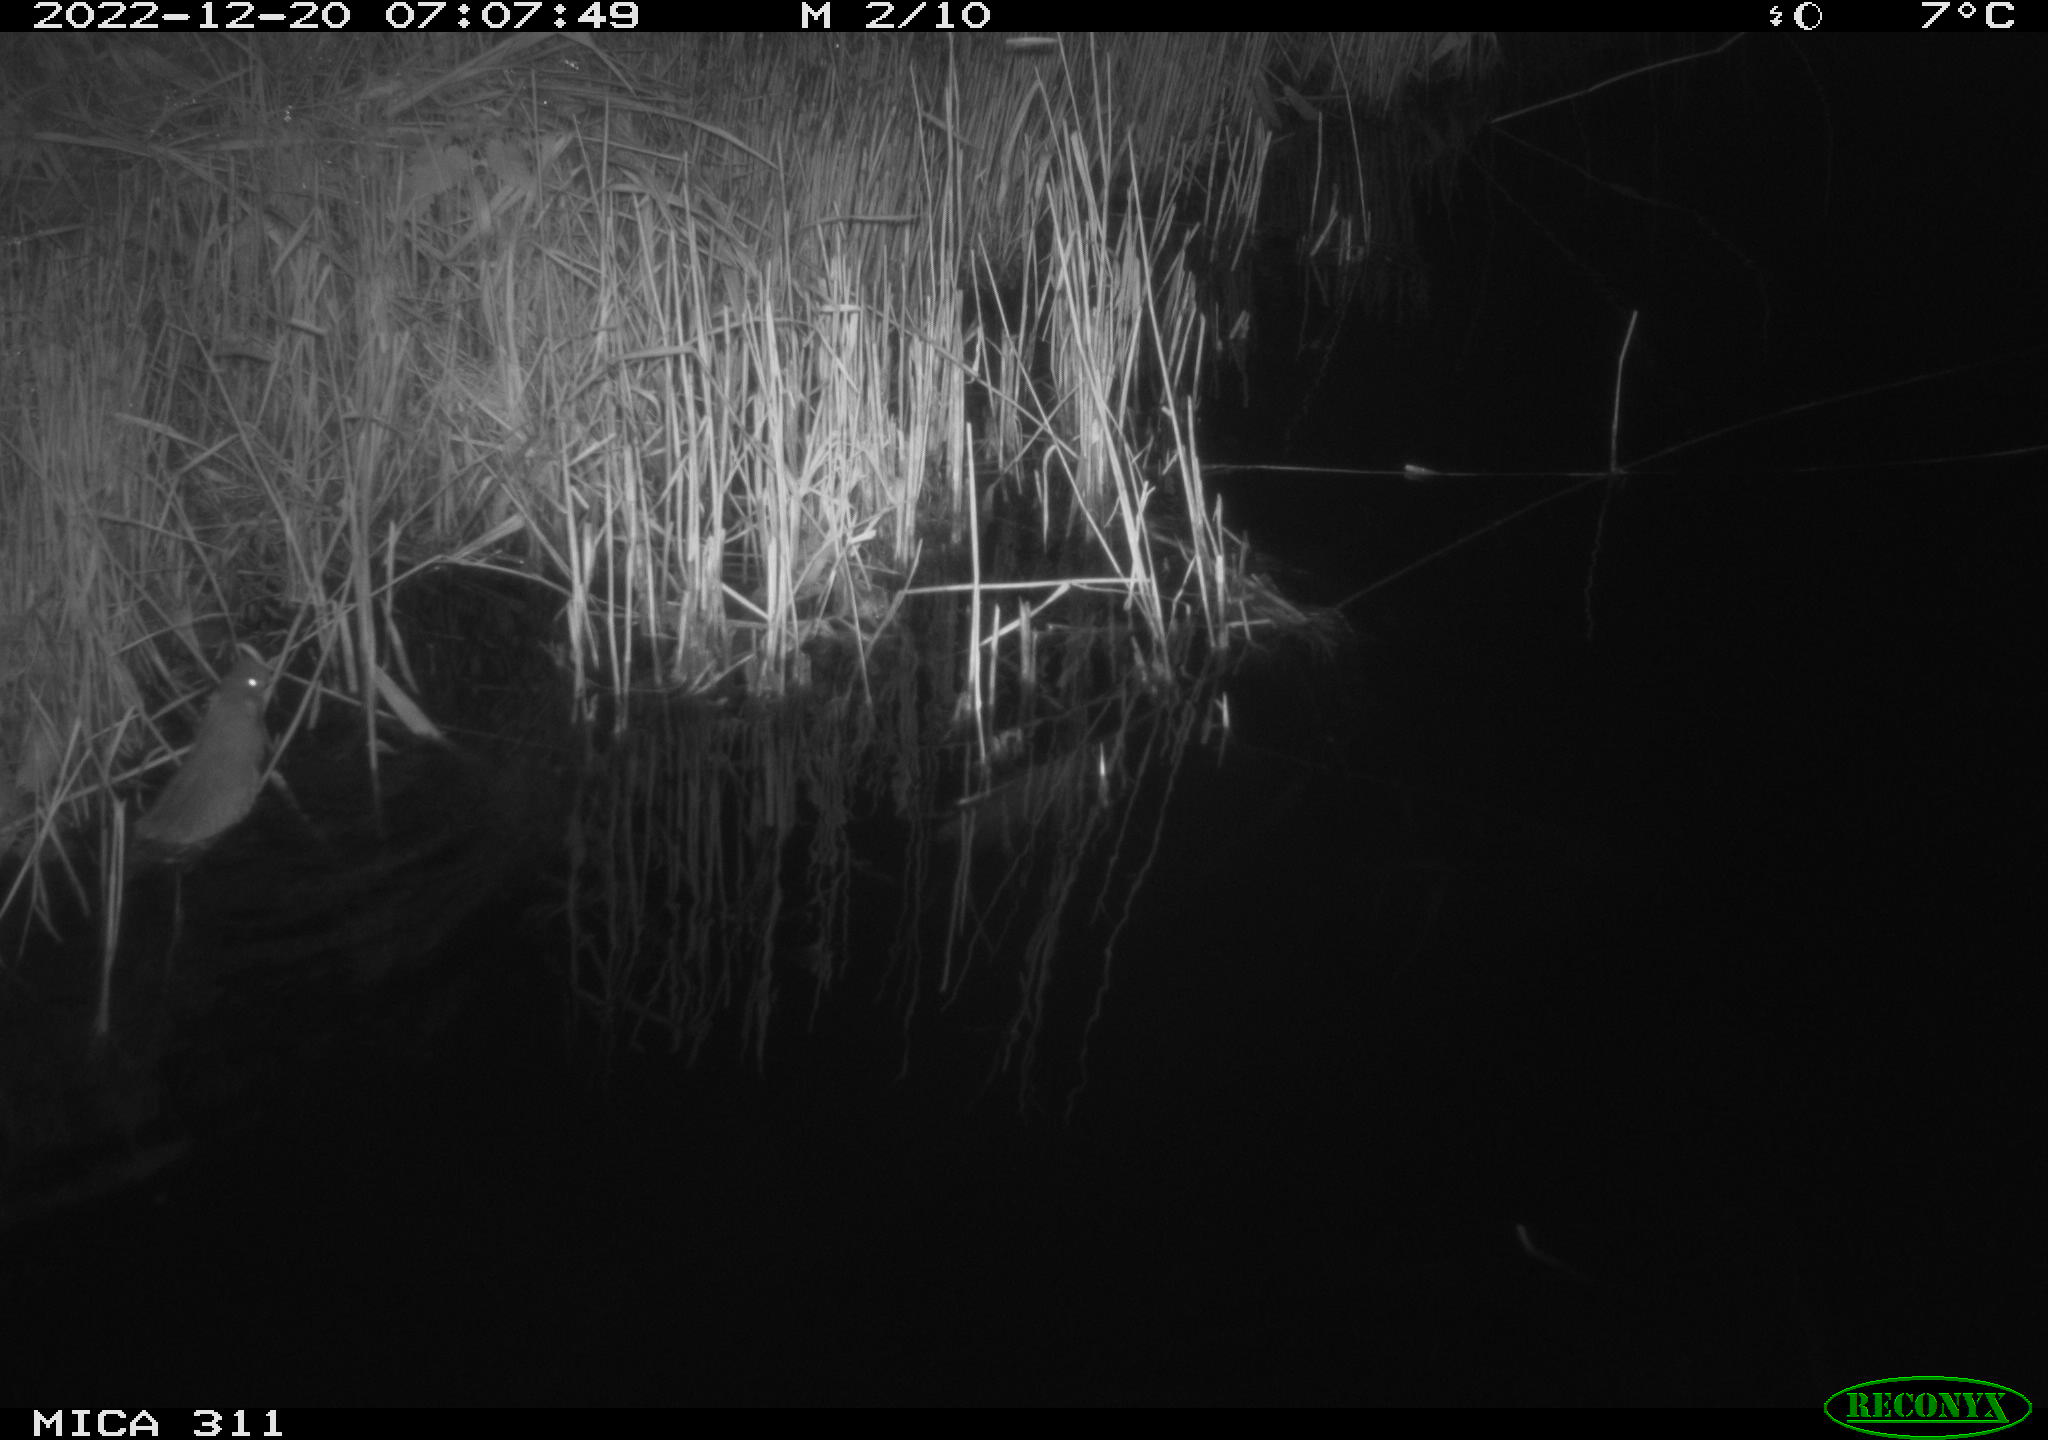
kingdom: Animalia
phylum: Chordata
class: Mammalia
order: Rodentia
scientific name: Rodentia
